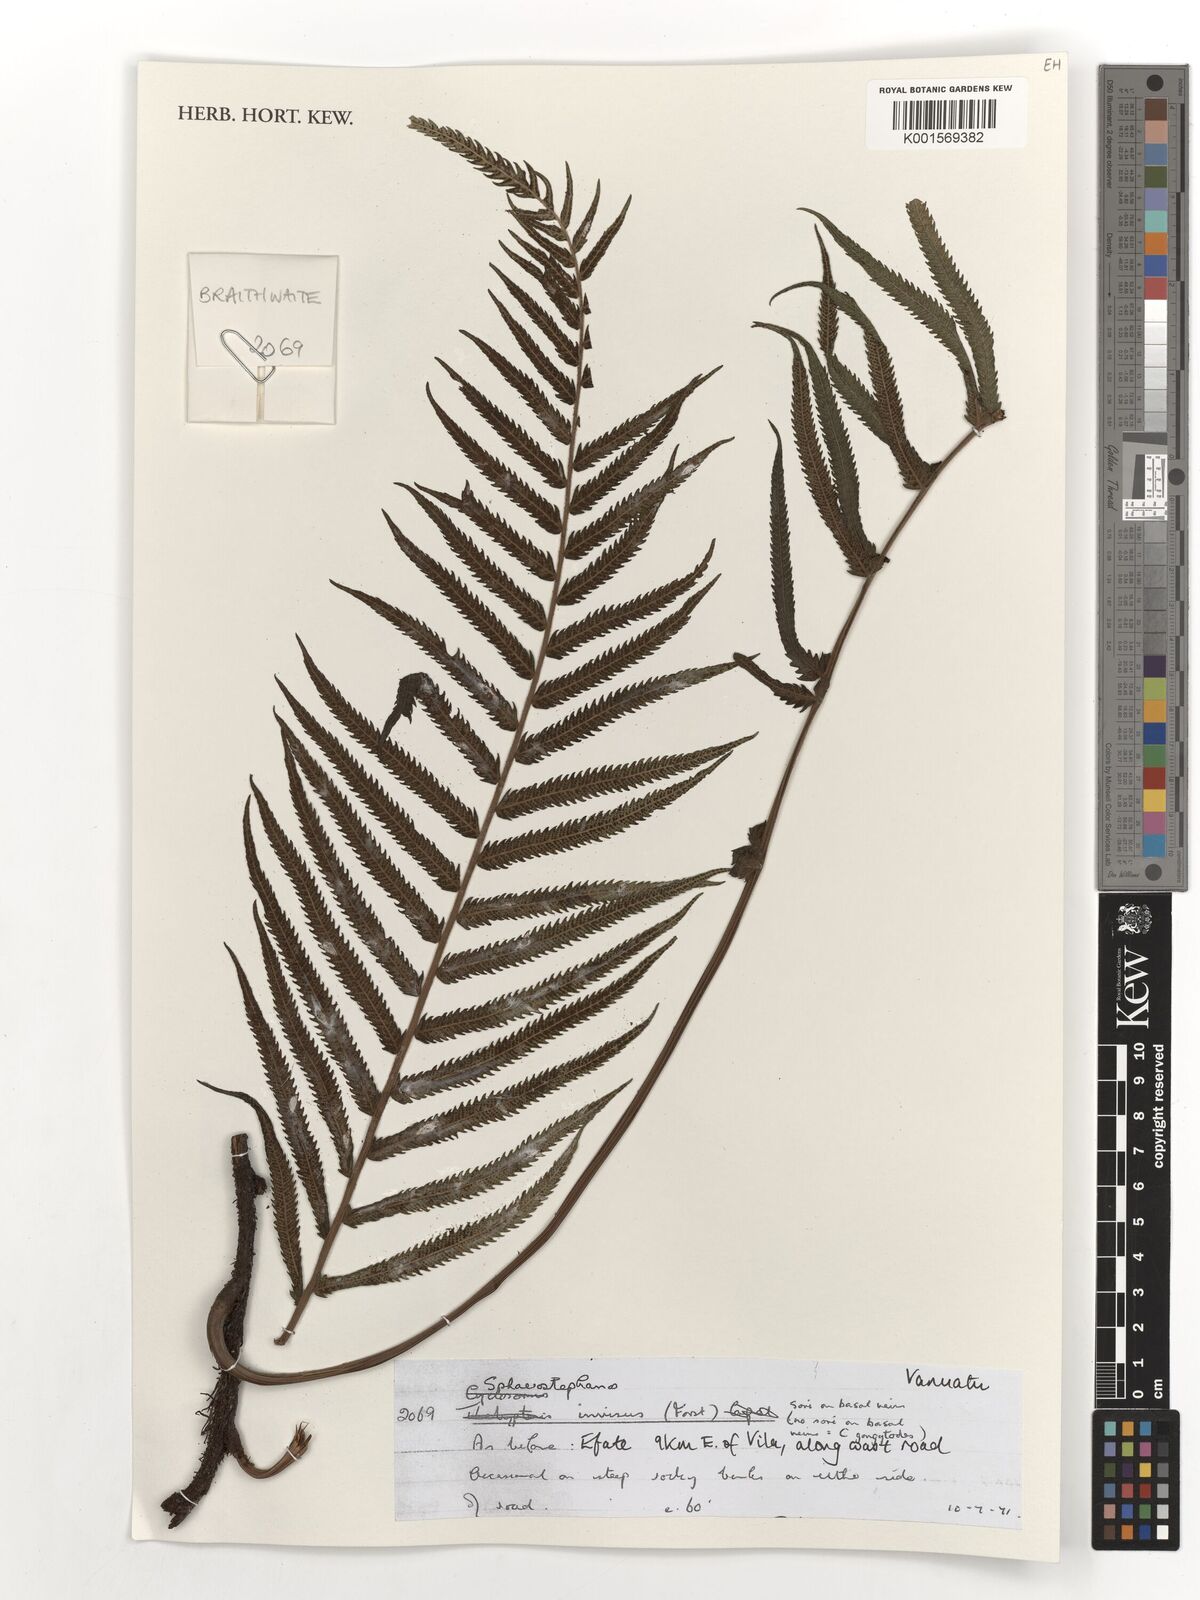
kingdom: Plantae
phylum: Tracheophyta
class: Polypodiopsida
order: Polypodiales
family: Thelypteridaceae
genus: Strophocaulon
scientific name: Strophocaulon invisum
